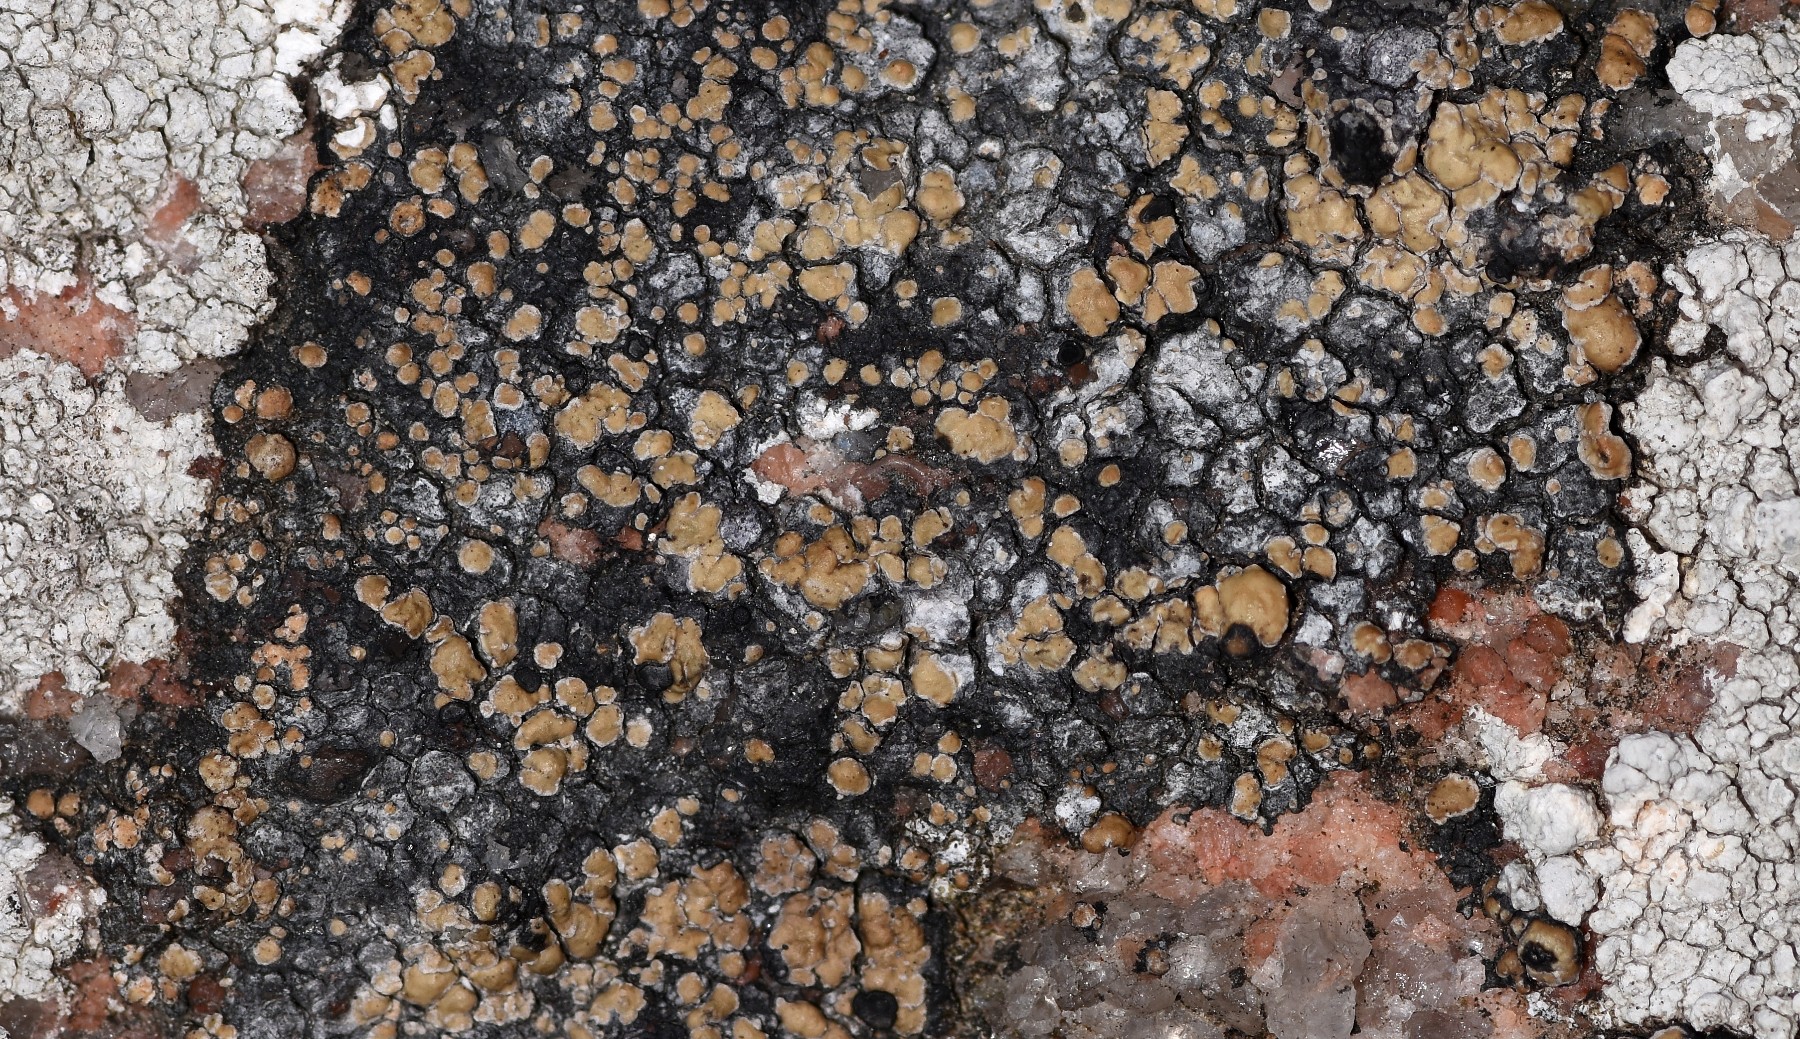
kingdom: Fungi
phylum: Ascomycota
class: Lecanoromycetes
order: Lecideales
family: Lecideaceae
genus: Lecidea
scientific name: Lecidea fuscoatra
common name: rudret skivelav
